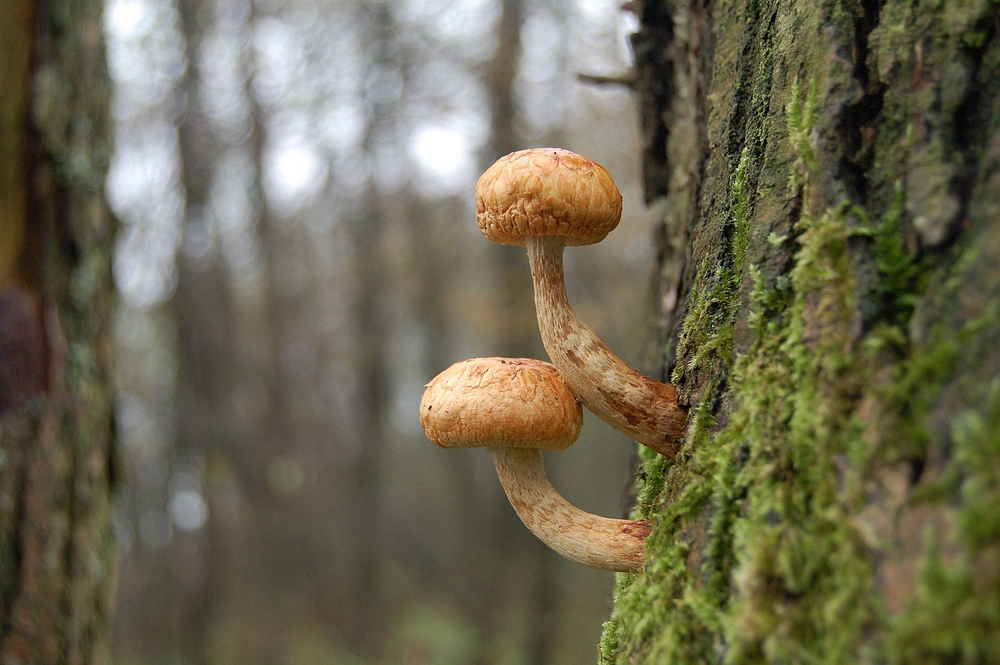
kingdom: Fungi
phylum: Basidiomycota
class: Agaricomycetes
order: Agaricales
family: Strophariaceae
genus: Pholiota
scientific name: Pholiota heteroclita
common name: duftende kæmpeskælhat
